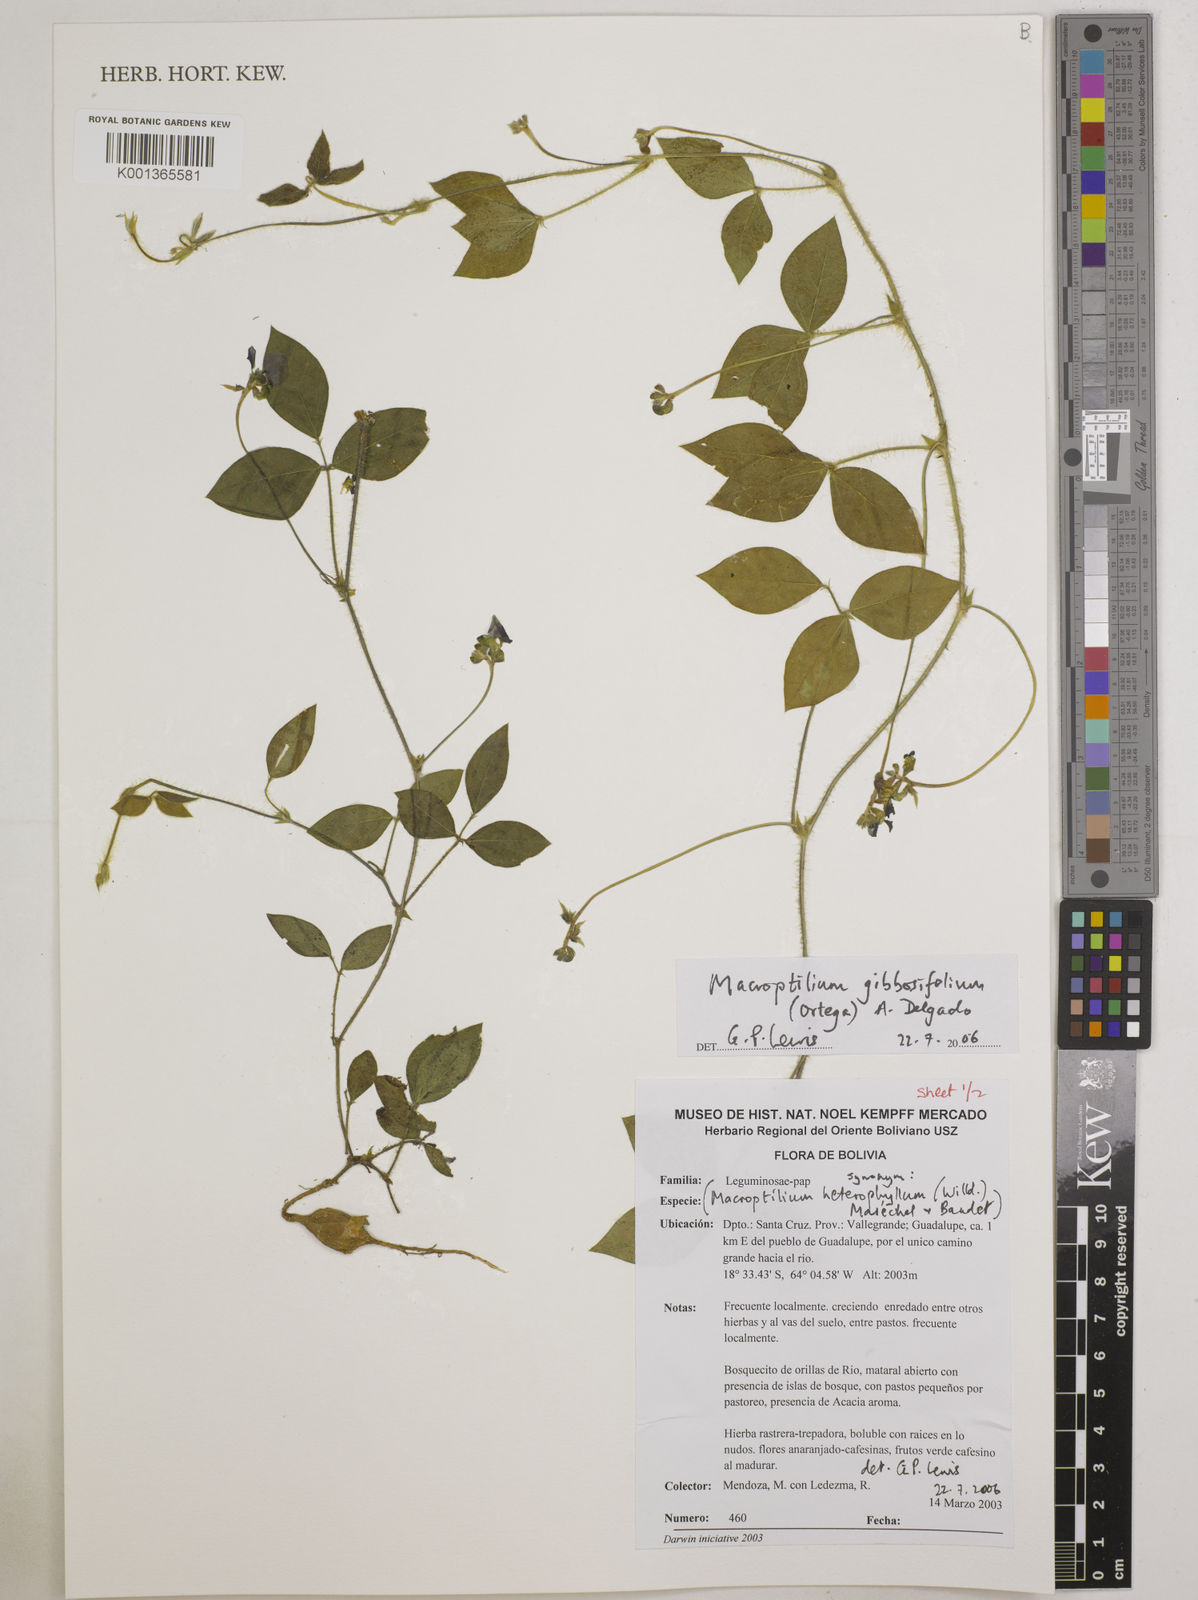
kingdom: Plantae
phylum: Tracheophyta
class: Magnoliopsida
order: Fabales
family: Fabaceae
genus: Macroptilium
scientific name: Macroptilium gibbosifolium
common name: Variableleaf bushbean
